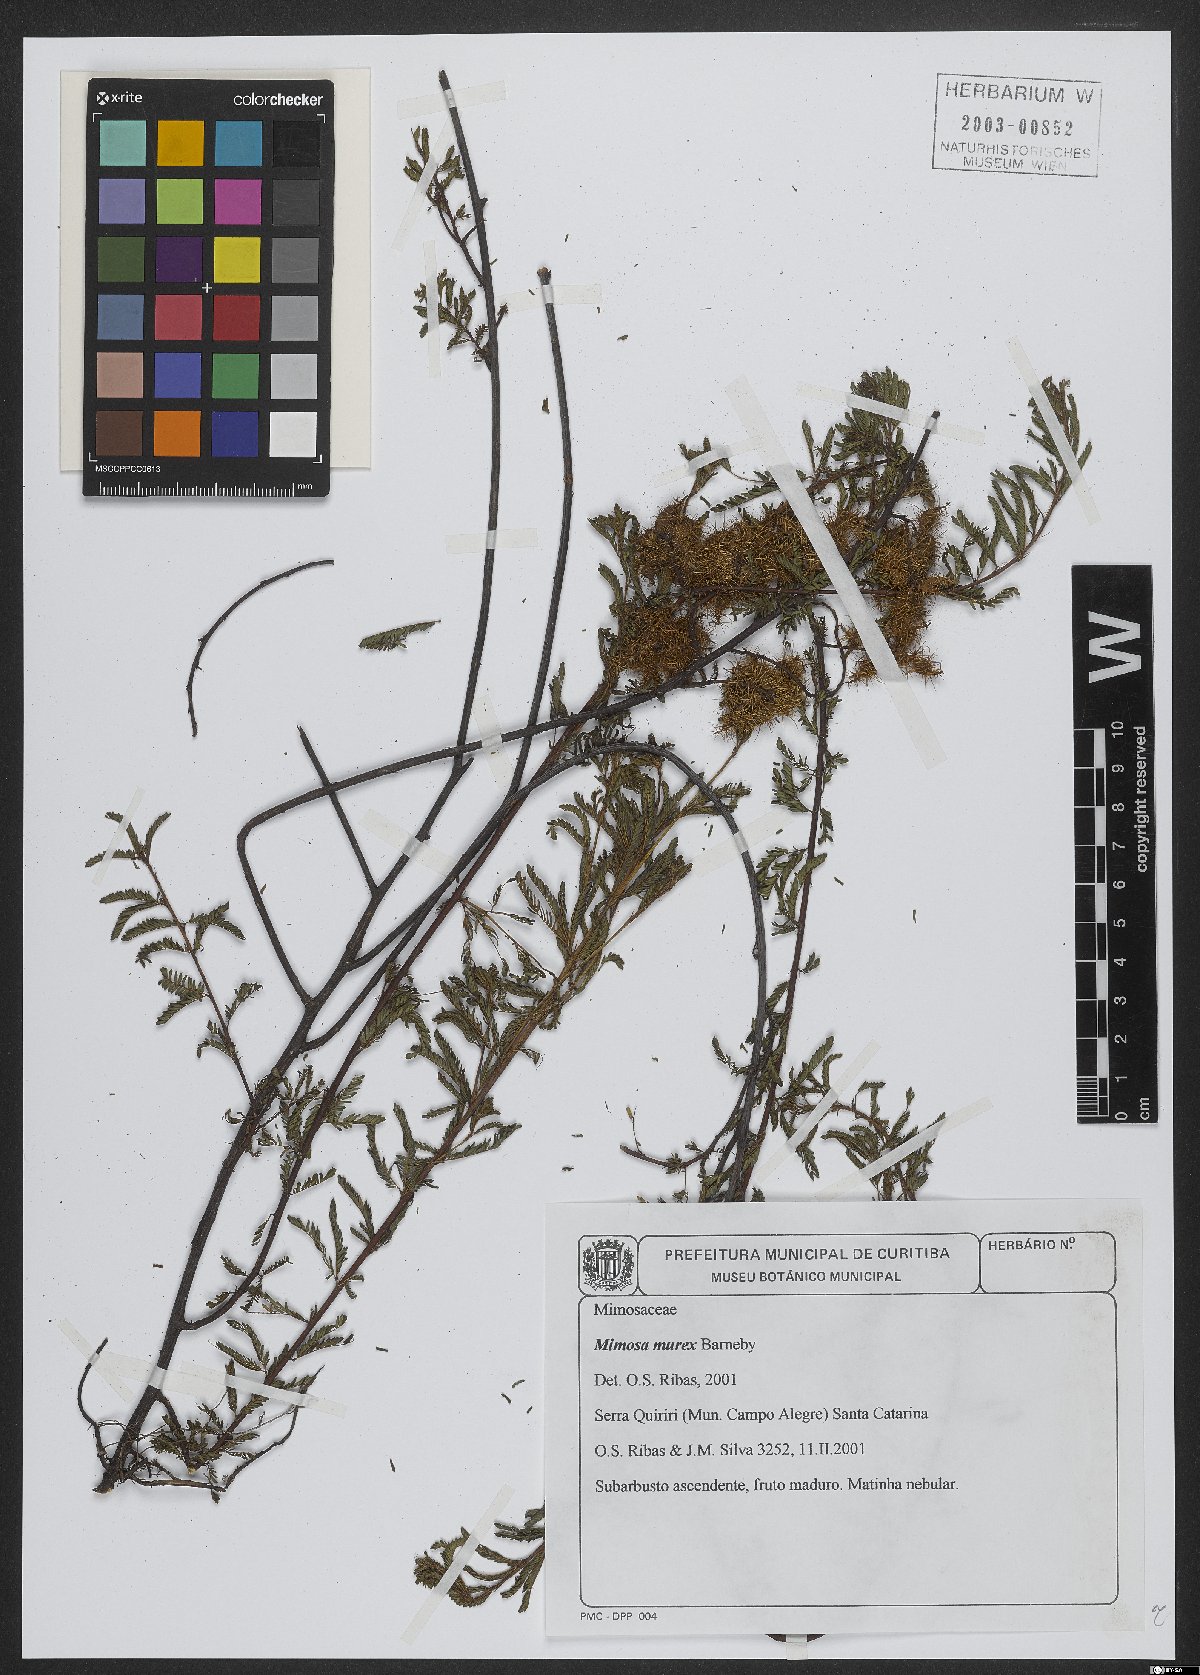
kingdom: Plantae
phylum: Tracheophyta
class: Magnoliopsida
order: Fabales
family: Fabaceae
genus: Mimosa
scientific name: Mimosa murex
